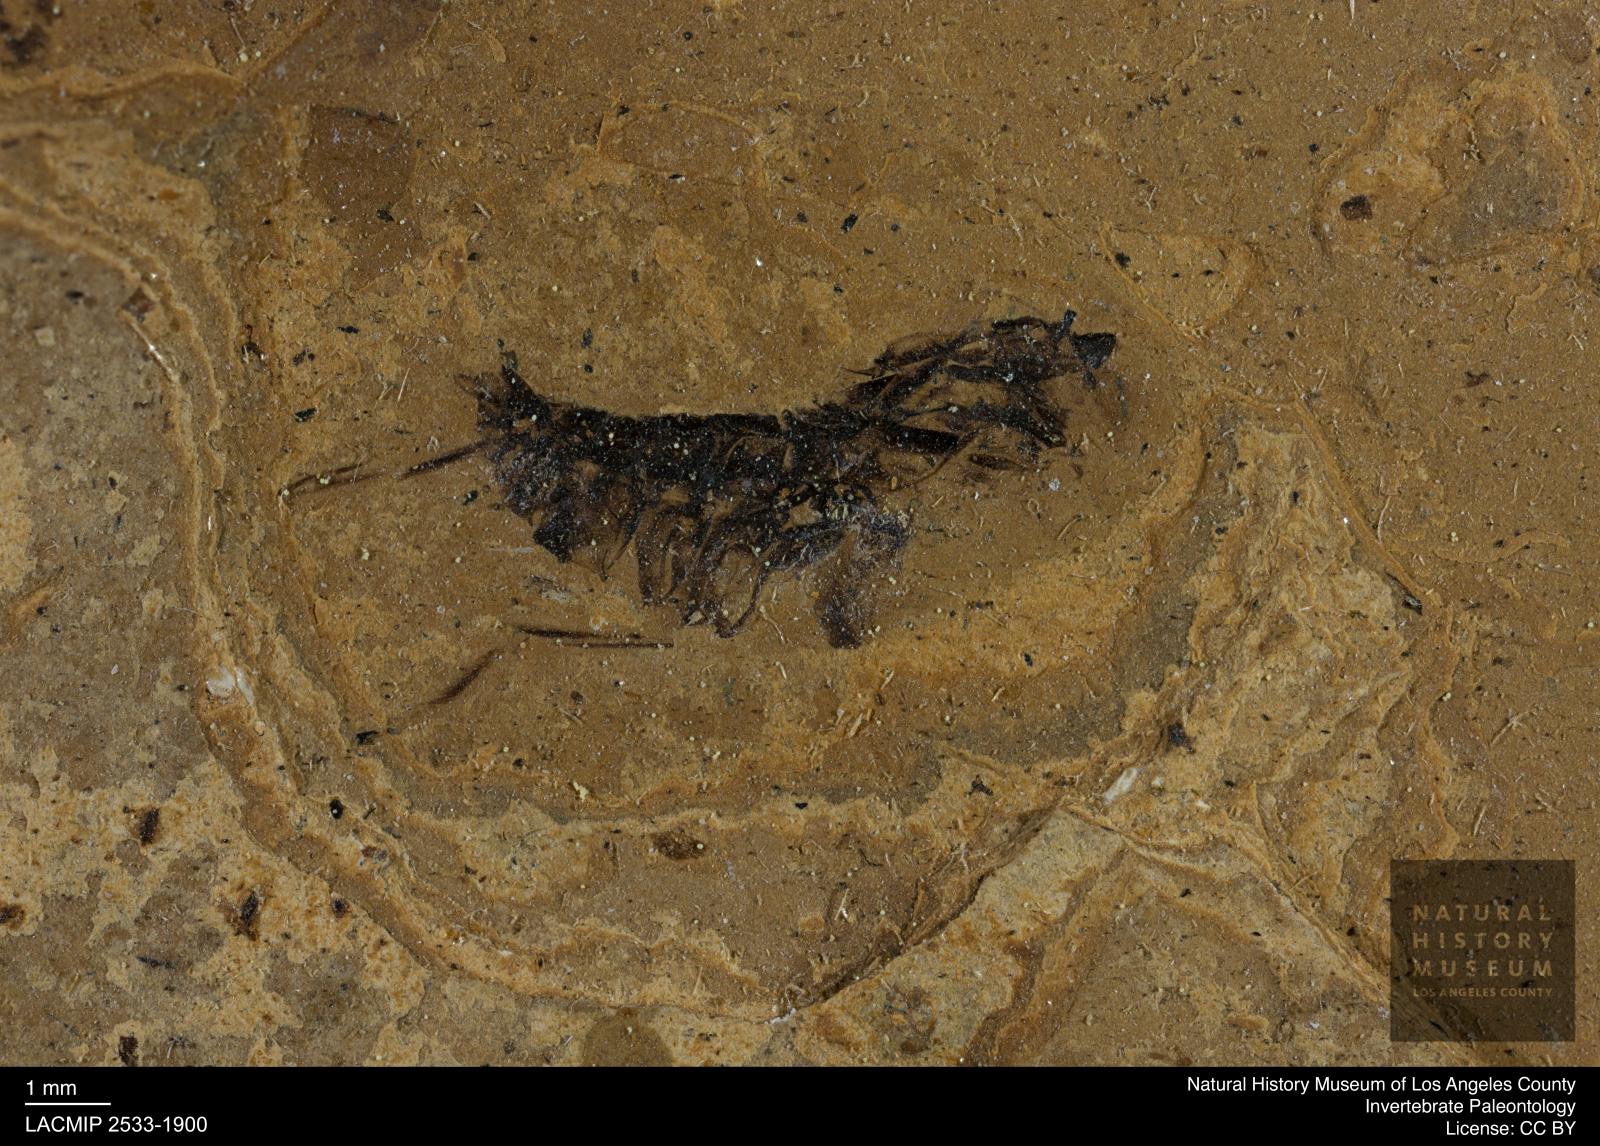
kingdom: Animalia
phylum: Arthropoda
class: Insecta
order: Hemiptera
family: Notonectidae
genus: Anisops
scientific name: Anisops Notonecta deichmuelleri
